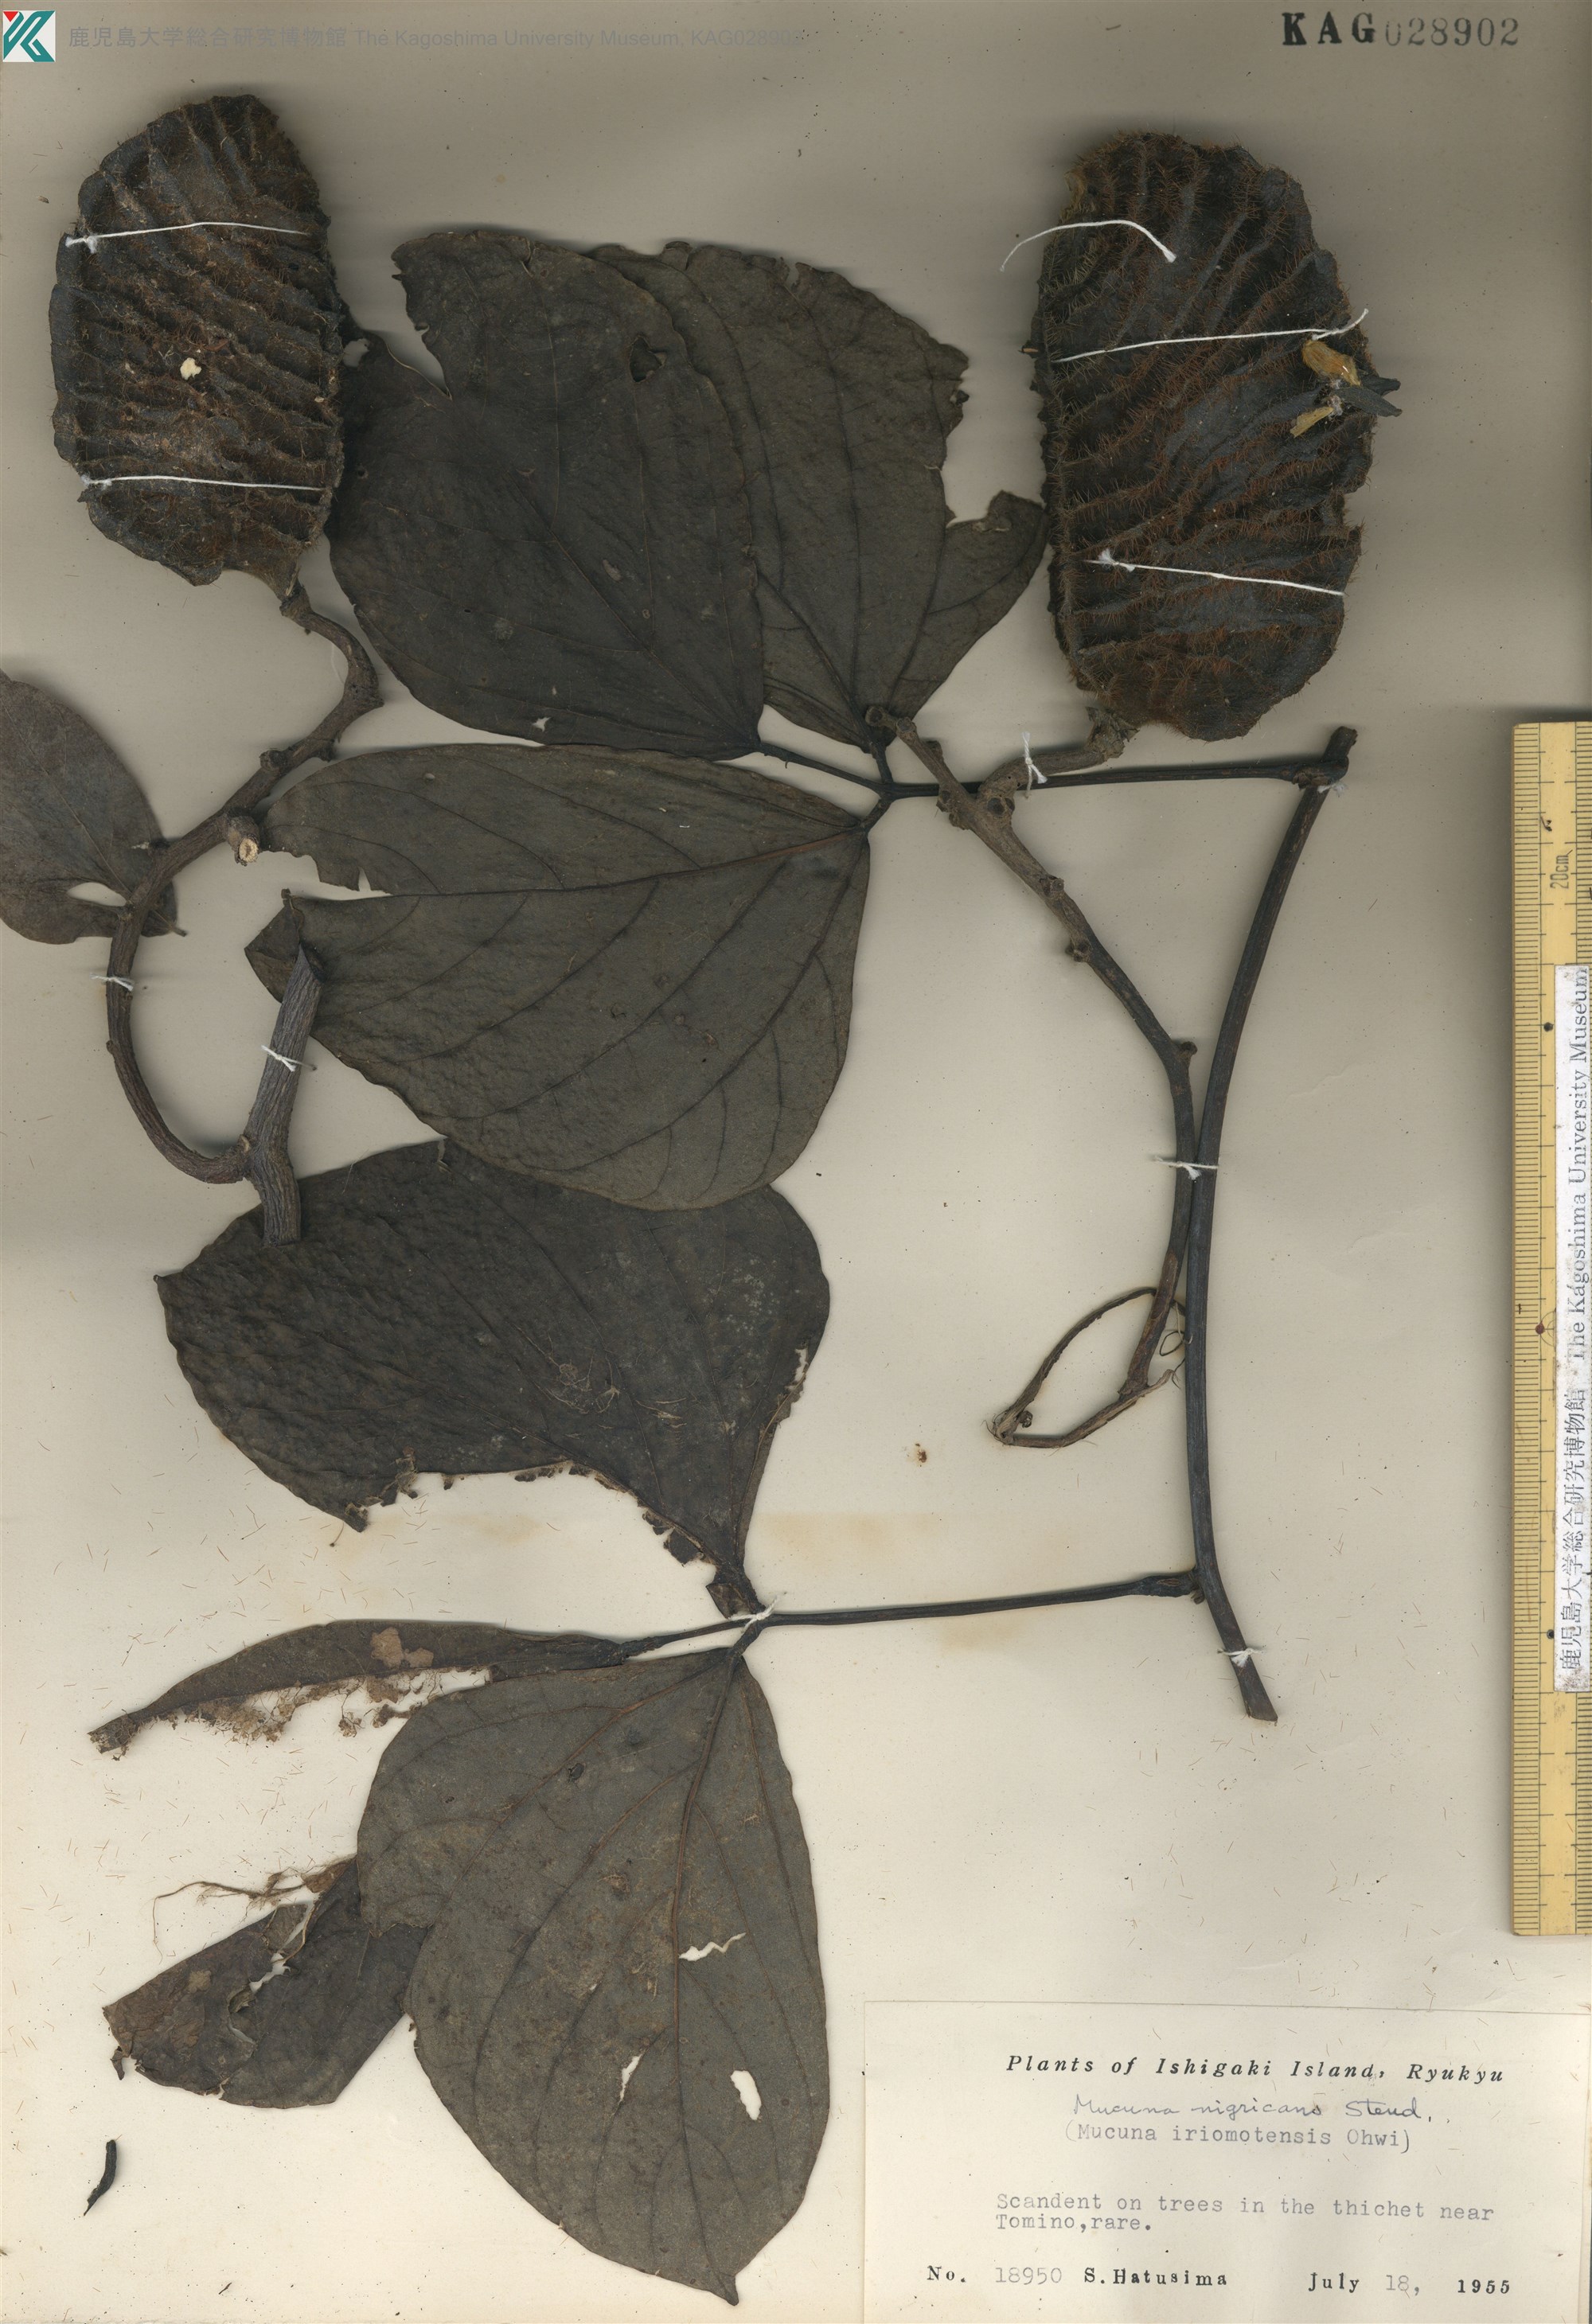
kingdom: Plantae
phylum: Tracheophyta
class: Magnoliopsida
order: Fabales
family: Fabaceae
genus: Mucuna
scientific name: Mucuna membranacea
